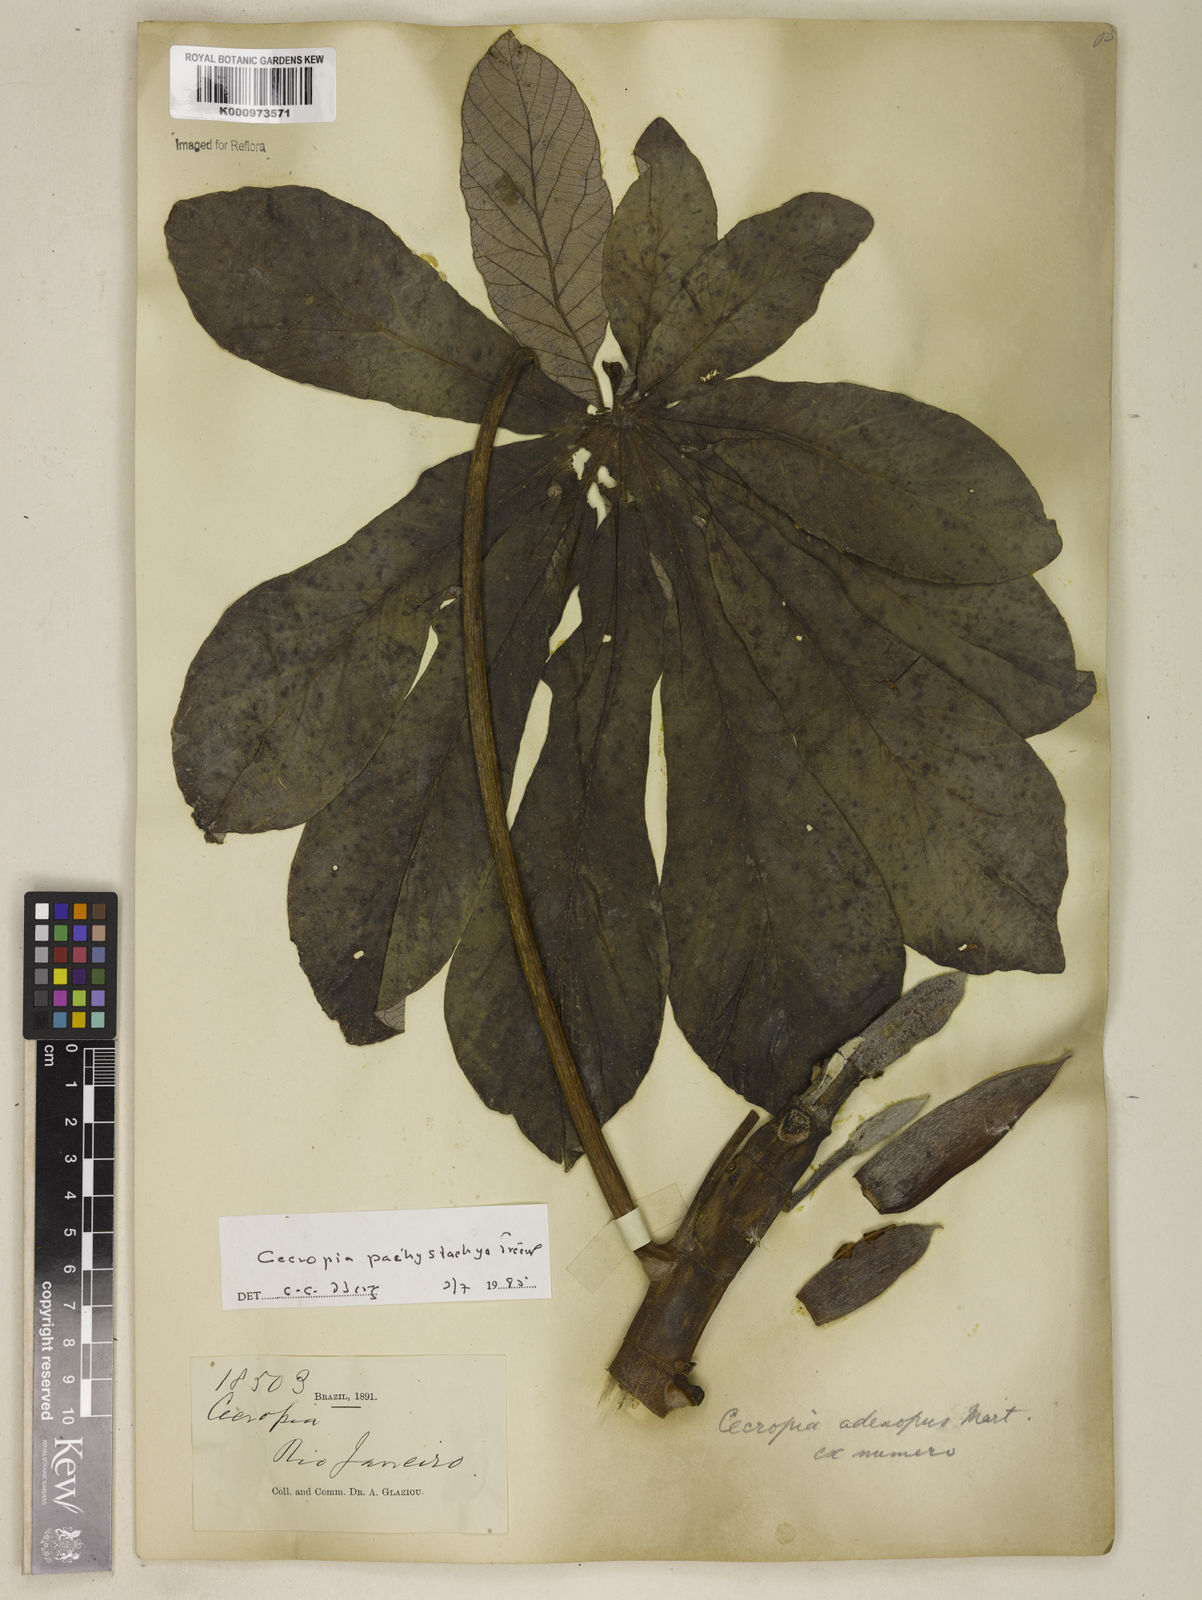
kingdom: Plantae
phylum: Tracheophyta
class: Magnoliopsida
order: Rosales
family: Urticaceae
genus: Cecropia
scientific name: Cecropia
